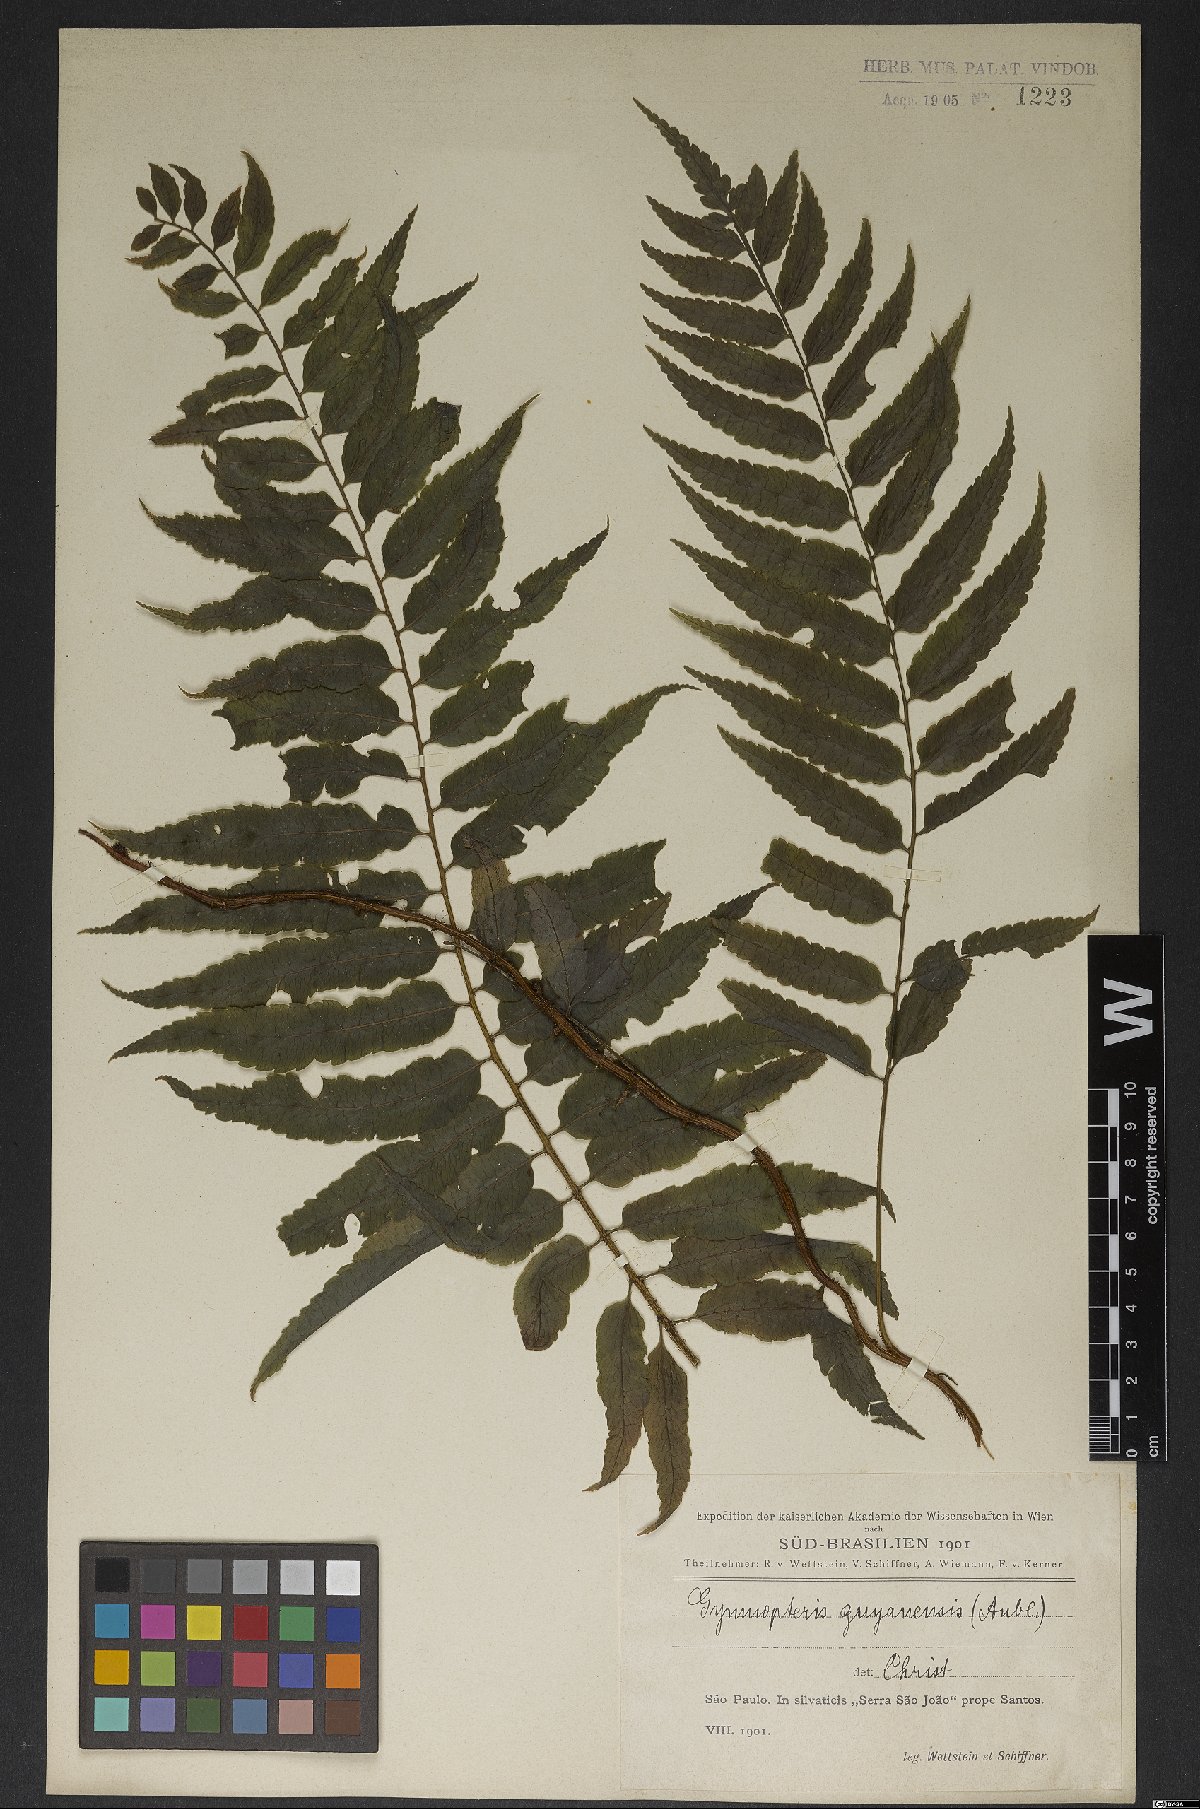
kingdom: Plantae
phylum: Tracheophyta
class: Polypodiopsida
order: Polypodiales
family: Dryopteridaceae
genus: Mickelia
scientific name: Mickelia guianensis
